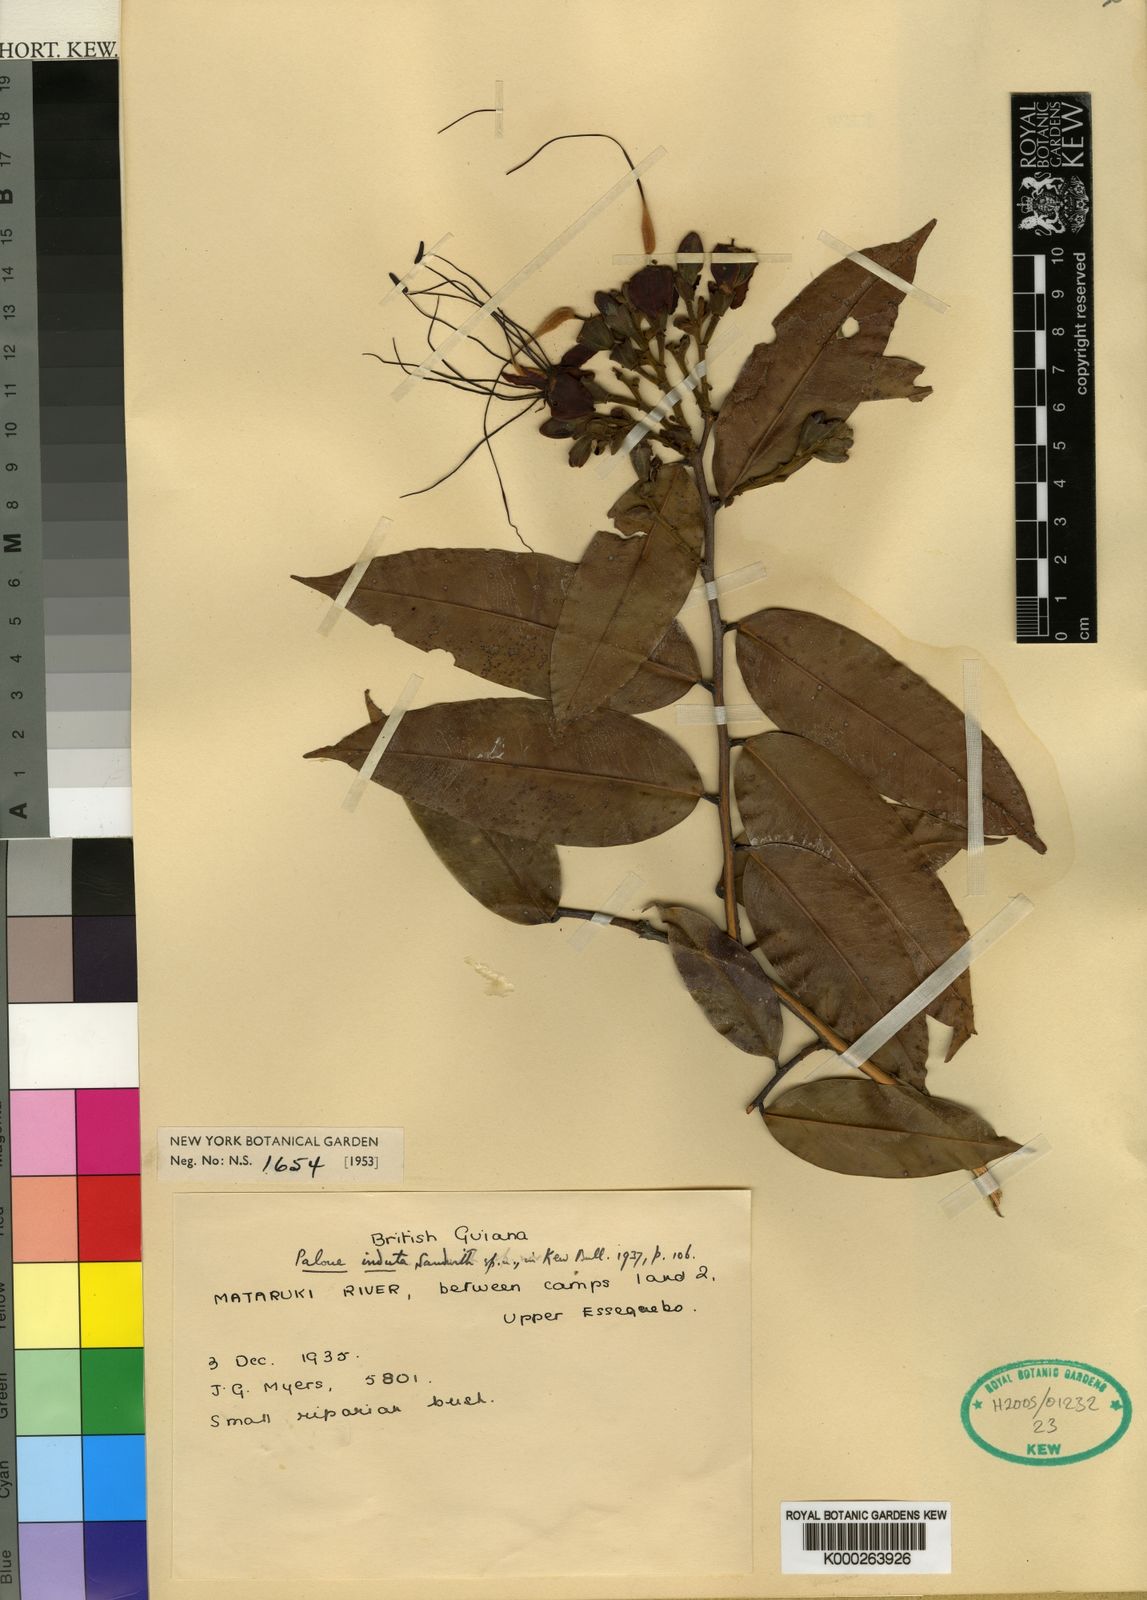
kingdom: Plantae
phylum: Tracheophyta
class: Magnoliopsida
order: Fabales
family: Fabaceae
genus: Paloue
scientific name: Paloue induta
